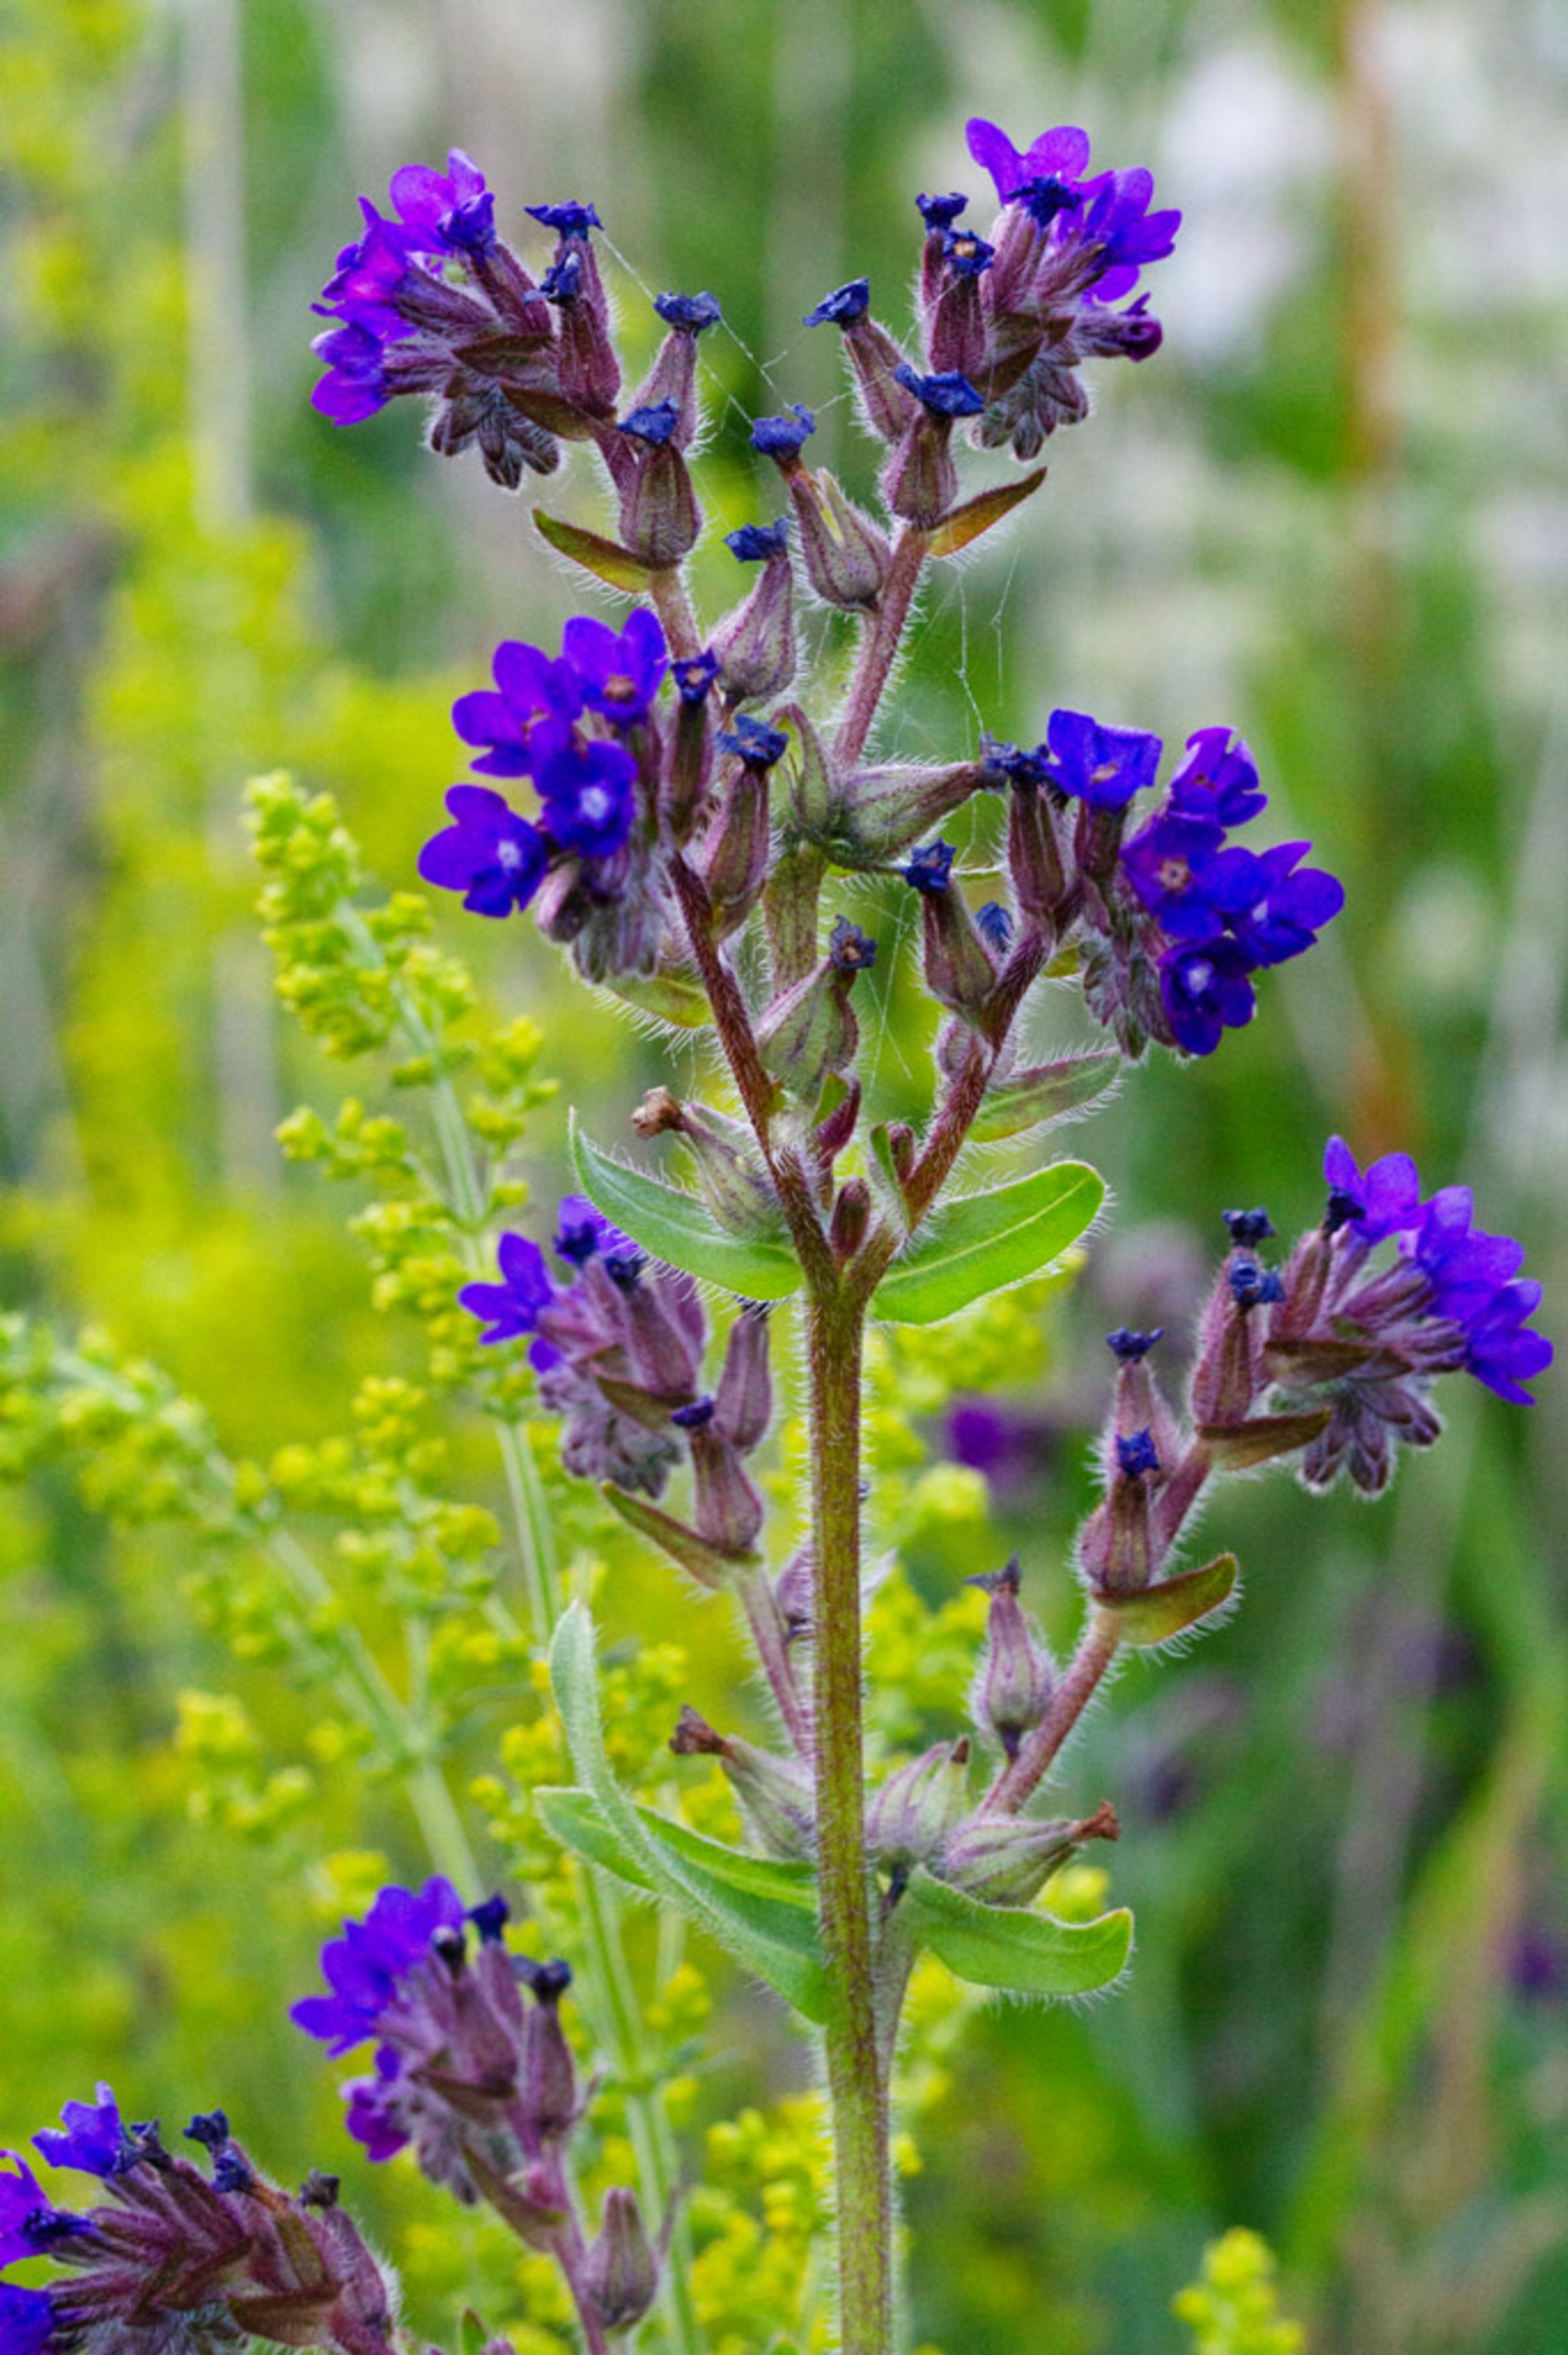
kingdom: Plantae
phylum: Tracheophyta
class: Magnoliopsida
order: Boraginales
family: Boraginaceae
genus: Anchusa
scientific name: Anchusa officinalis
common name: Læge-oksetunge
